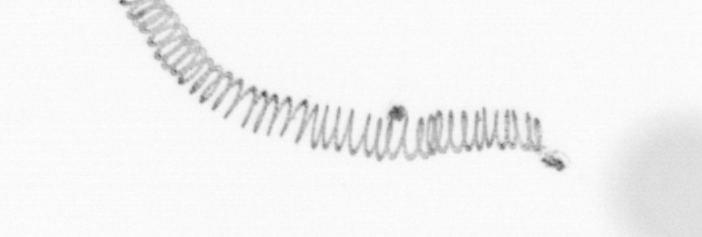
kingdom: Chromista
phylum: Ochrophyta
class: Bacillariophyceae
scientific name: Bacillariophyceae
